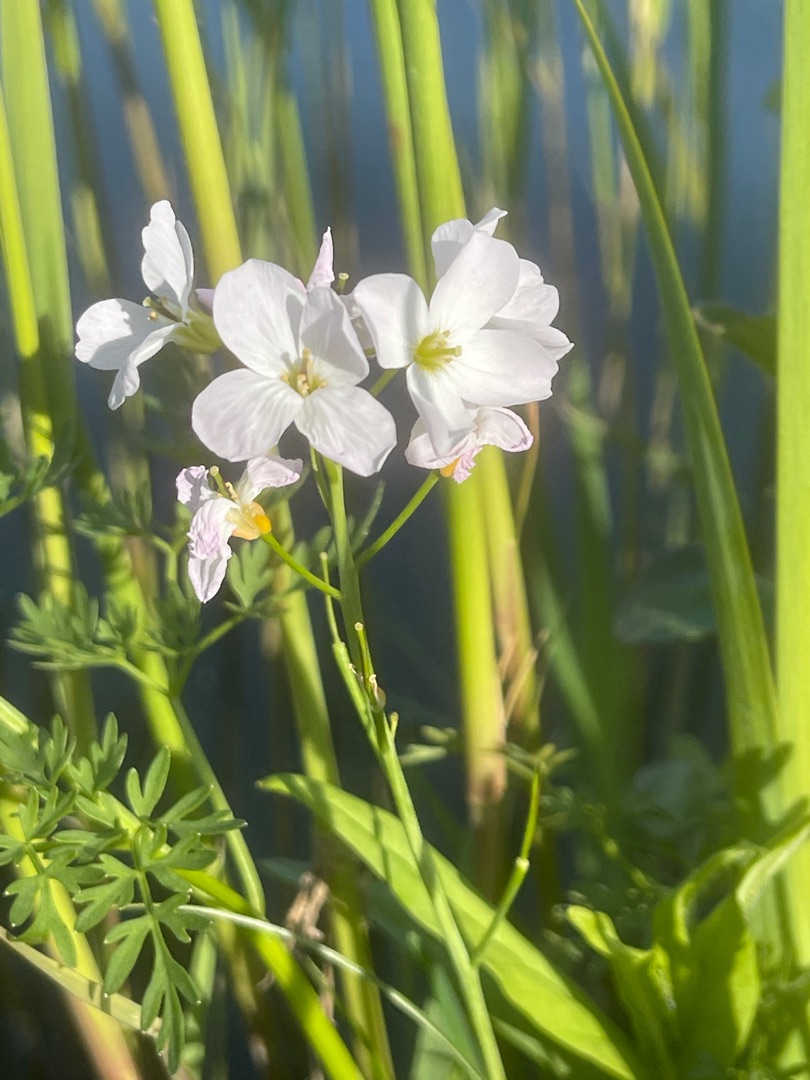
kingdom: Plantae
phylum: Tracheophyta
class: Magnoliopsida
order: Brassicales
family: Brassicaceae
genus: Cardamine
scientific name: Cardamine pratensis
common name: Engkarse
